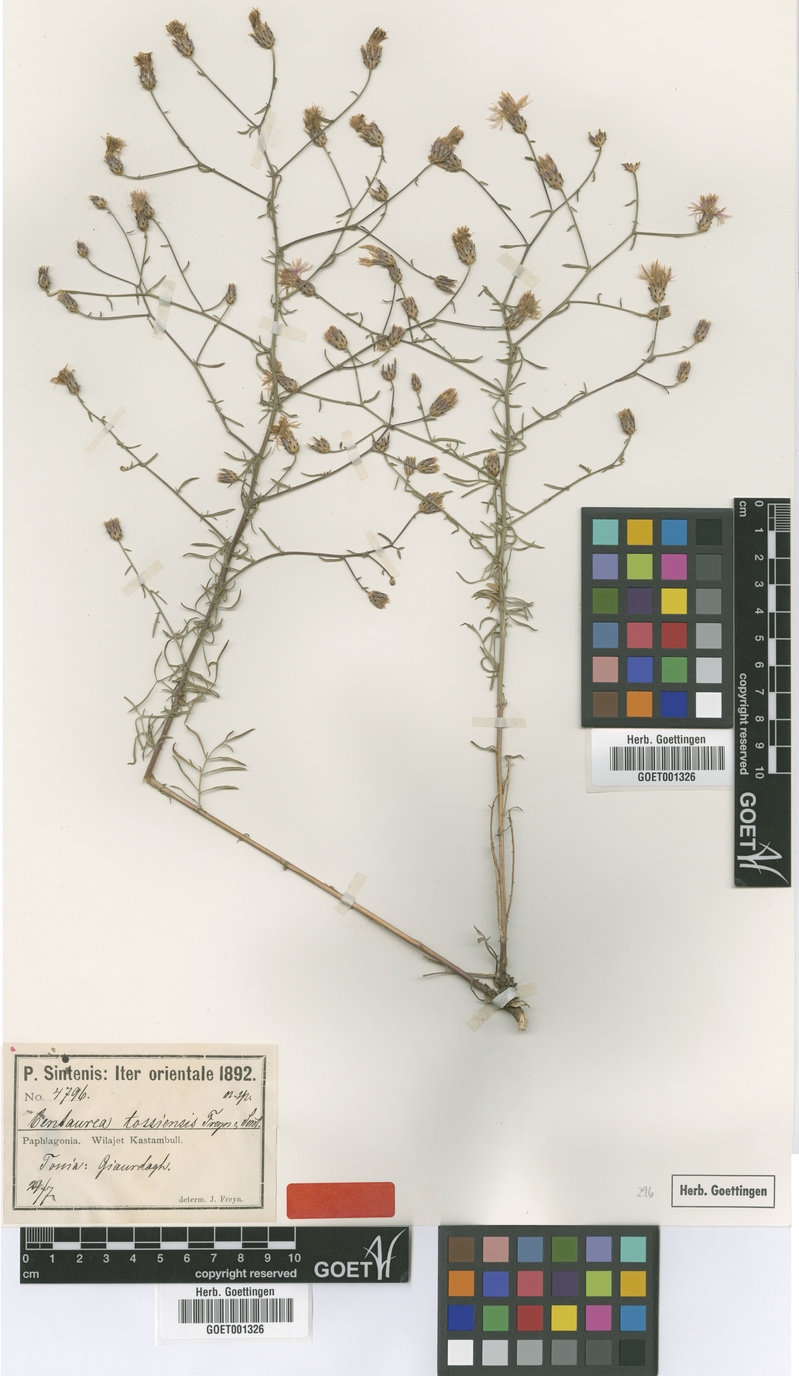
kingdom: Plantae
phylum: Tracheophyta
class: Magnoliopsida
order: Asterales
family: Asteraceae
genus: Centaurea
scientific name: Centaurea tossiensis
